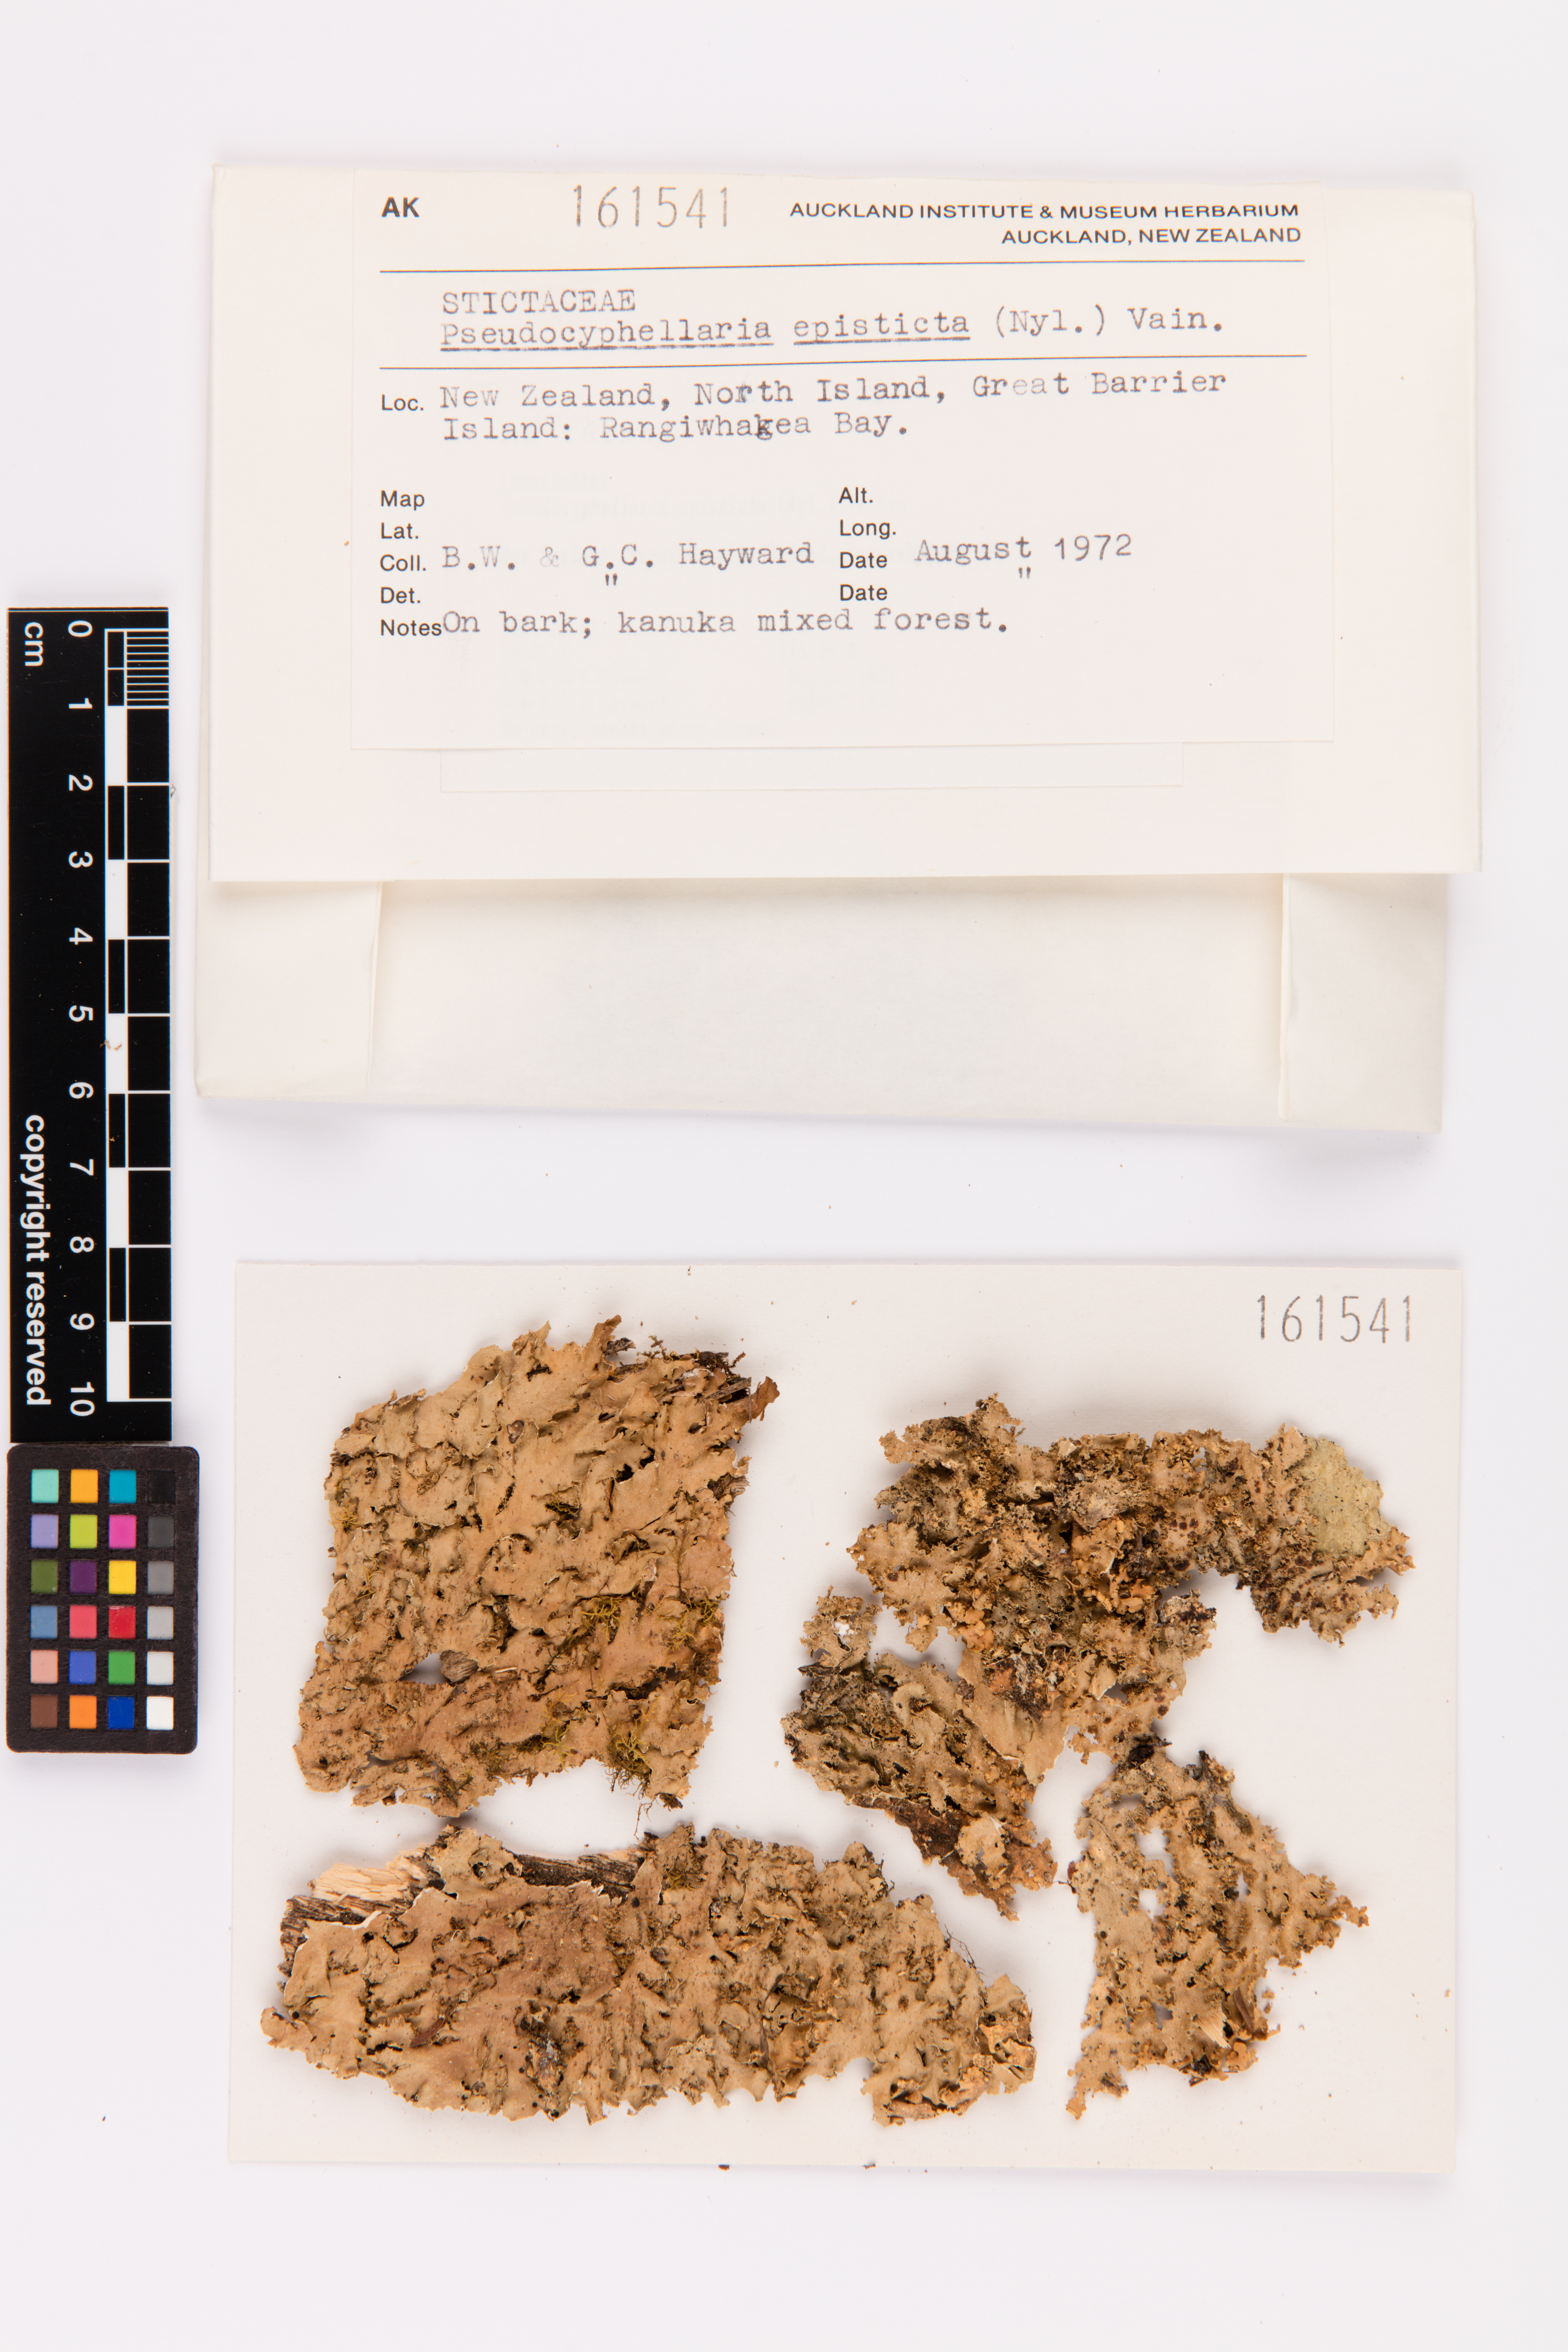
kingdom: Fungi
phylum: Ascomycota
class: Lecanoromycetes
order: Peltigerales
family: Lobariaceae
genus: Pseudocyphellaria
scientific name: Pseudocyphellaria episticta
